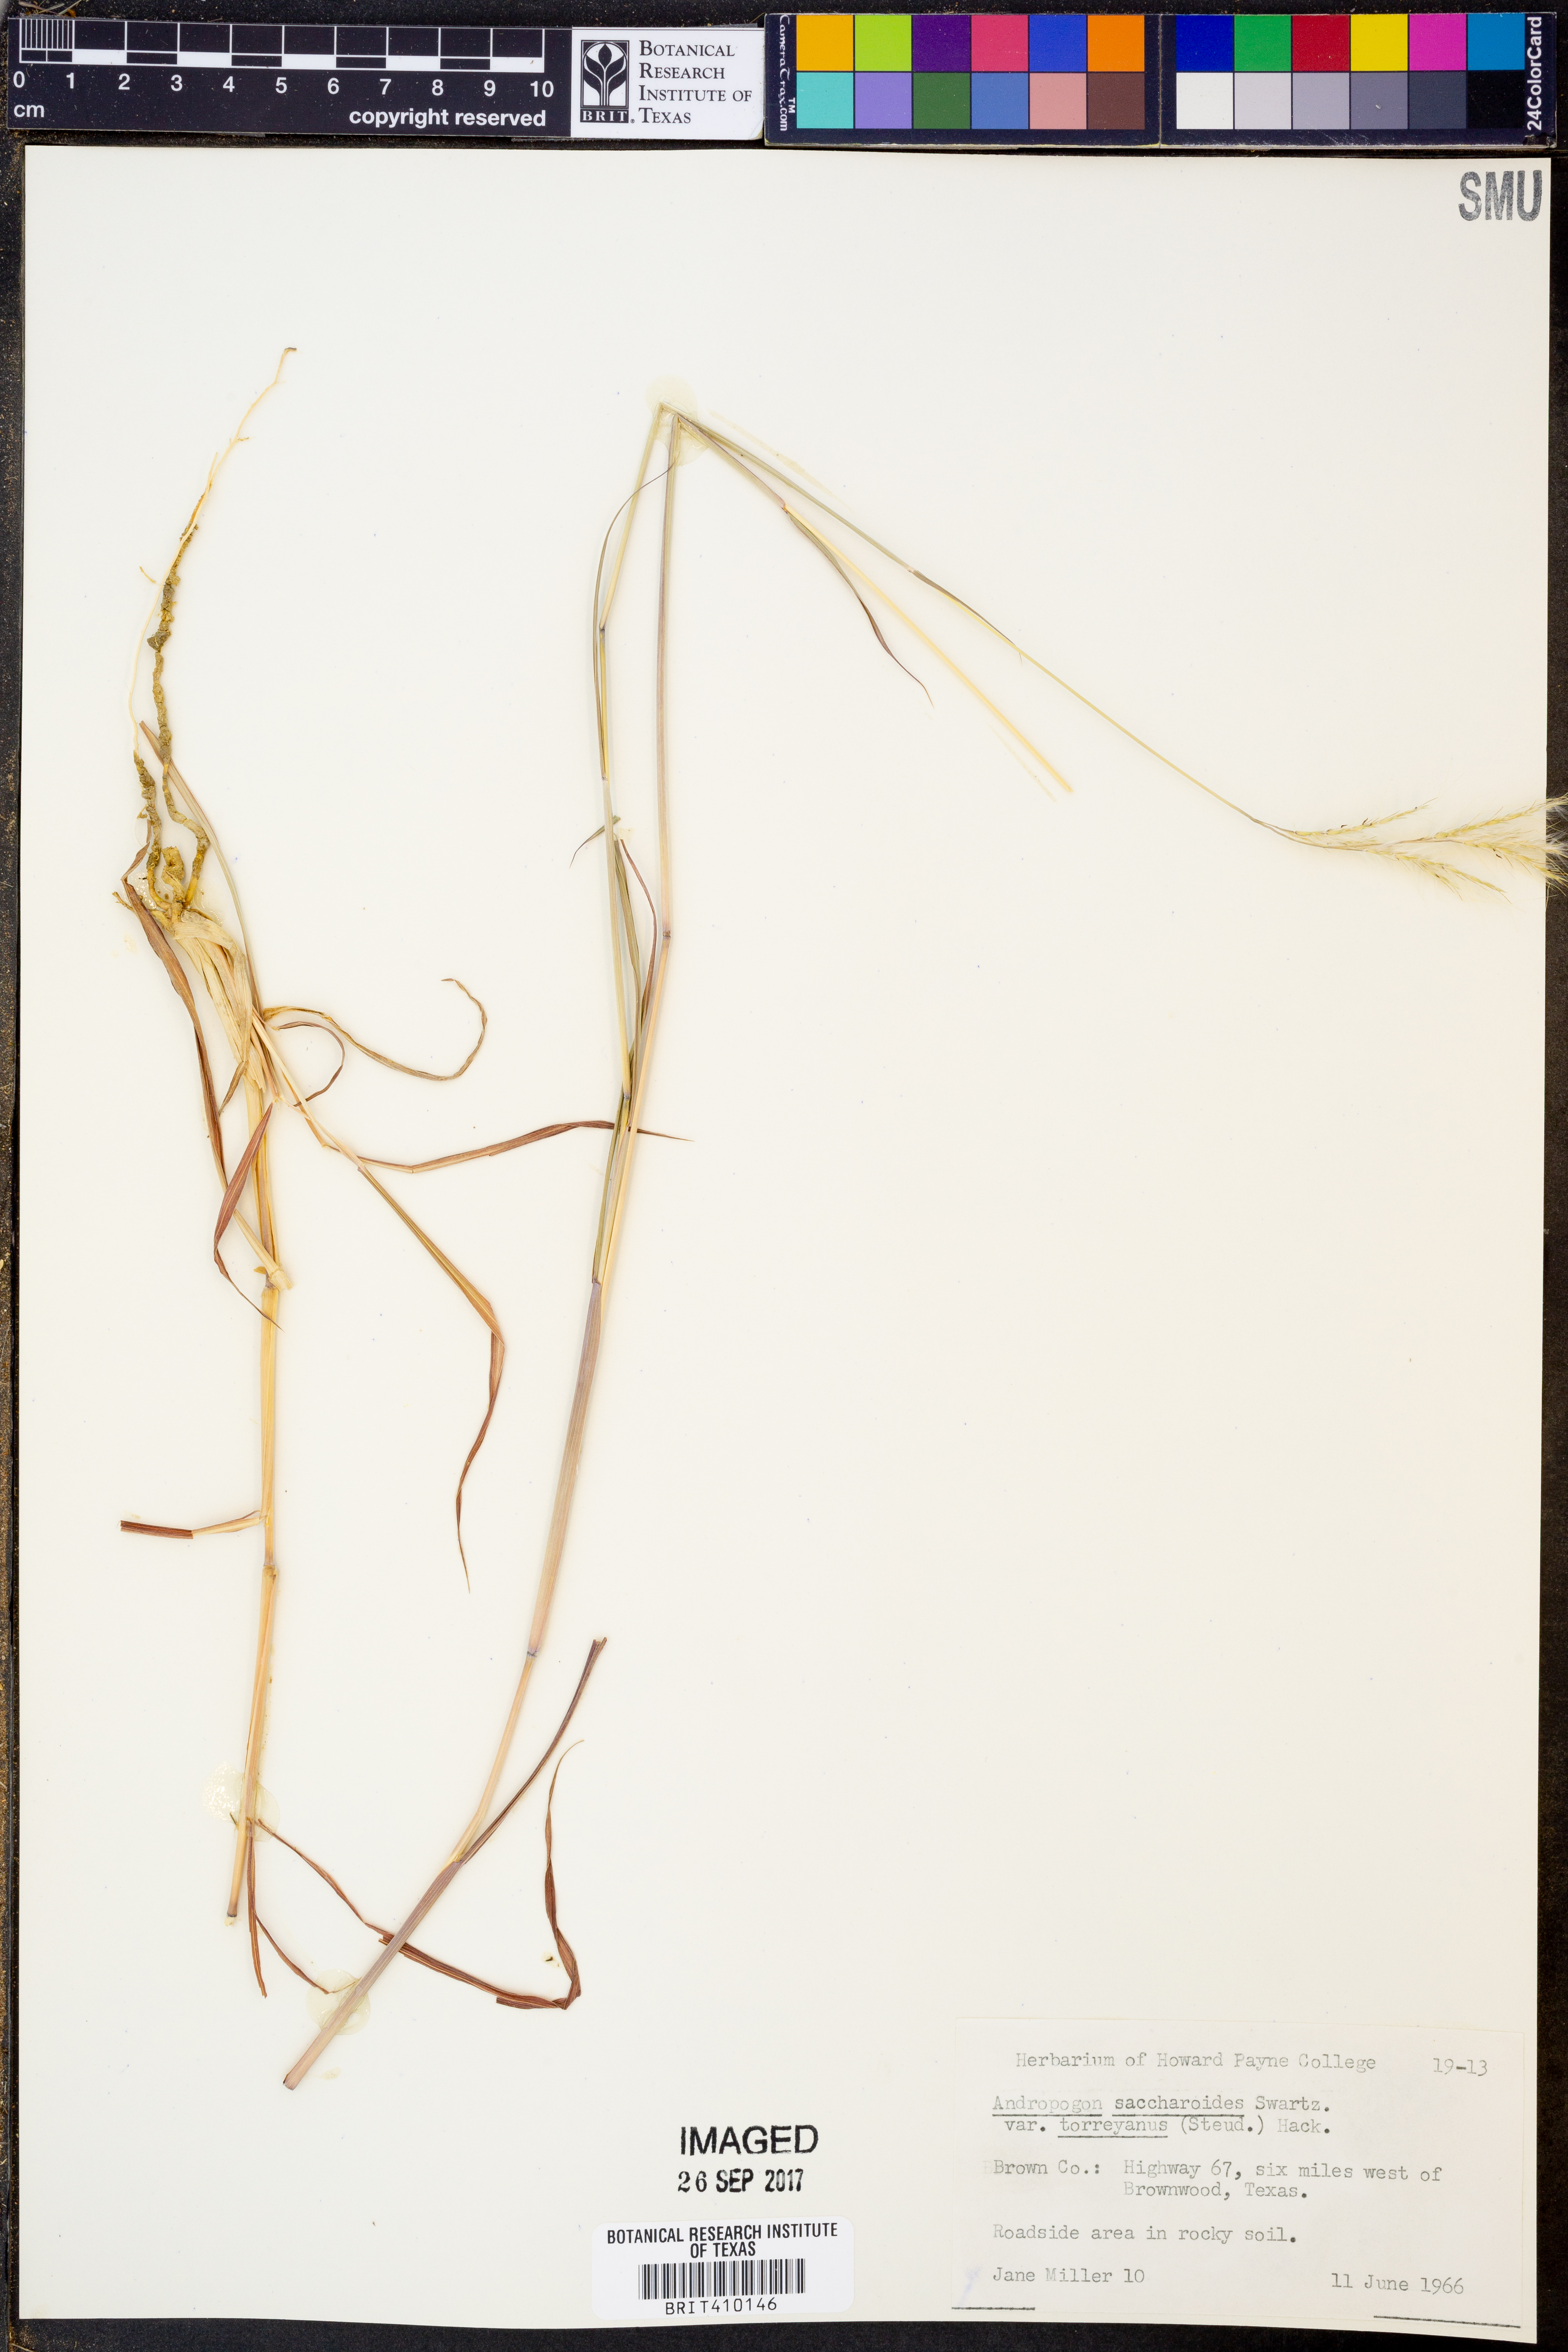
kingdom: Plantae
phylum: Tracheophyta
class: Liliopsida
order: Poales
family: Poaceae
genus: Bothriochloa
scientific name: Bothriochloa torreyana
